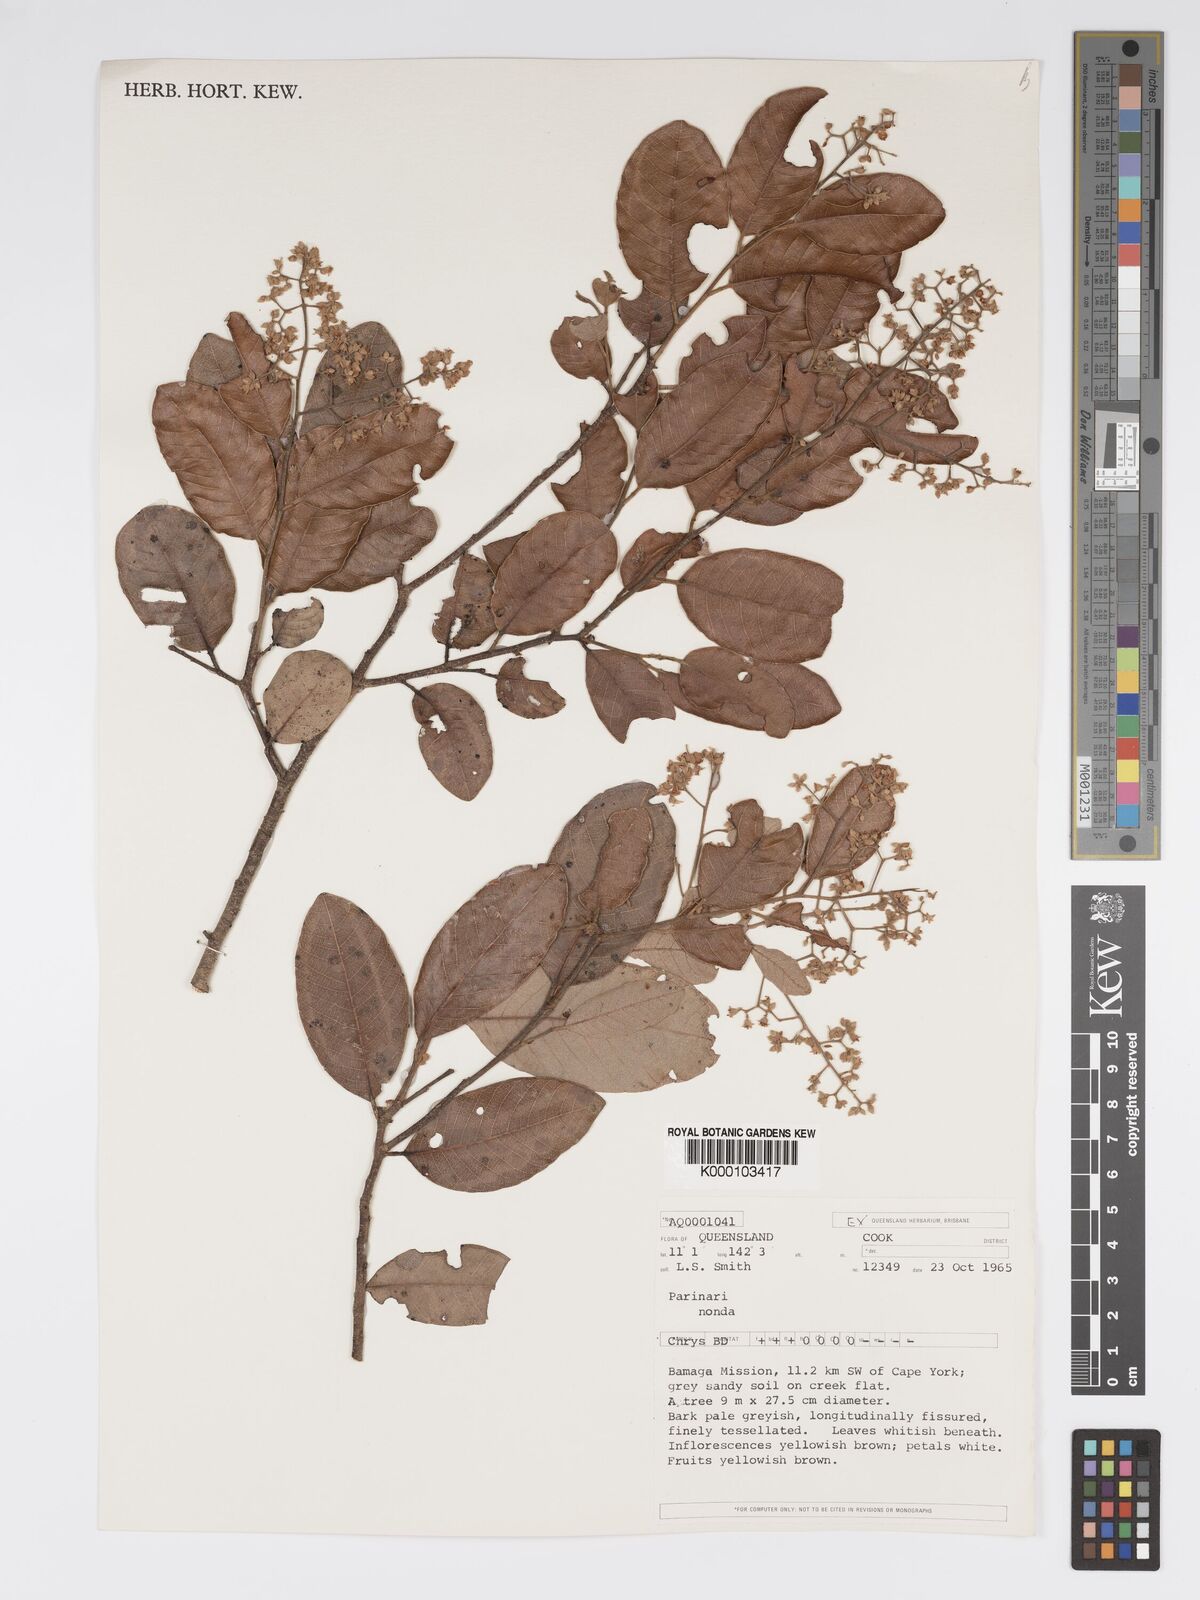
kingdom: Plantae
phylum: Tracheophyta
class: Magnoliopsida
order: Malpighiales
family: Chrysobalanaceae
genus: Parinari
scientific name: Parinari nonda
